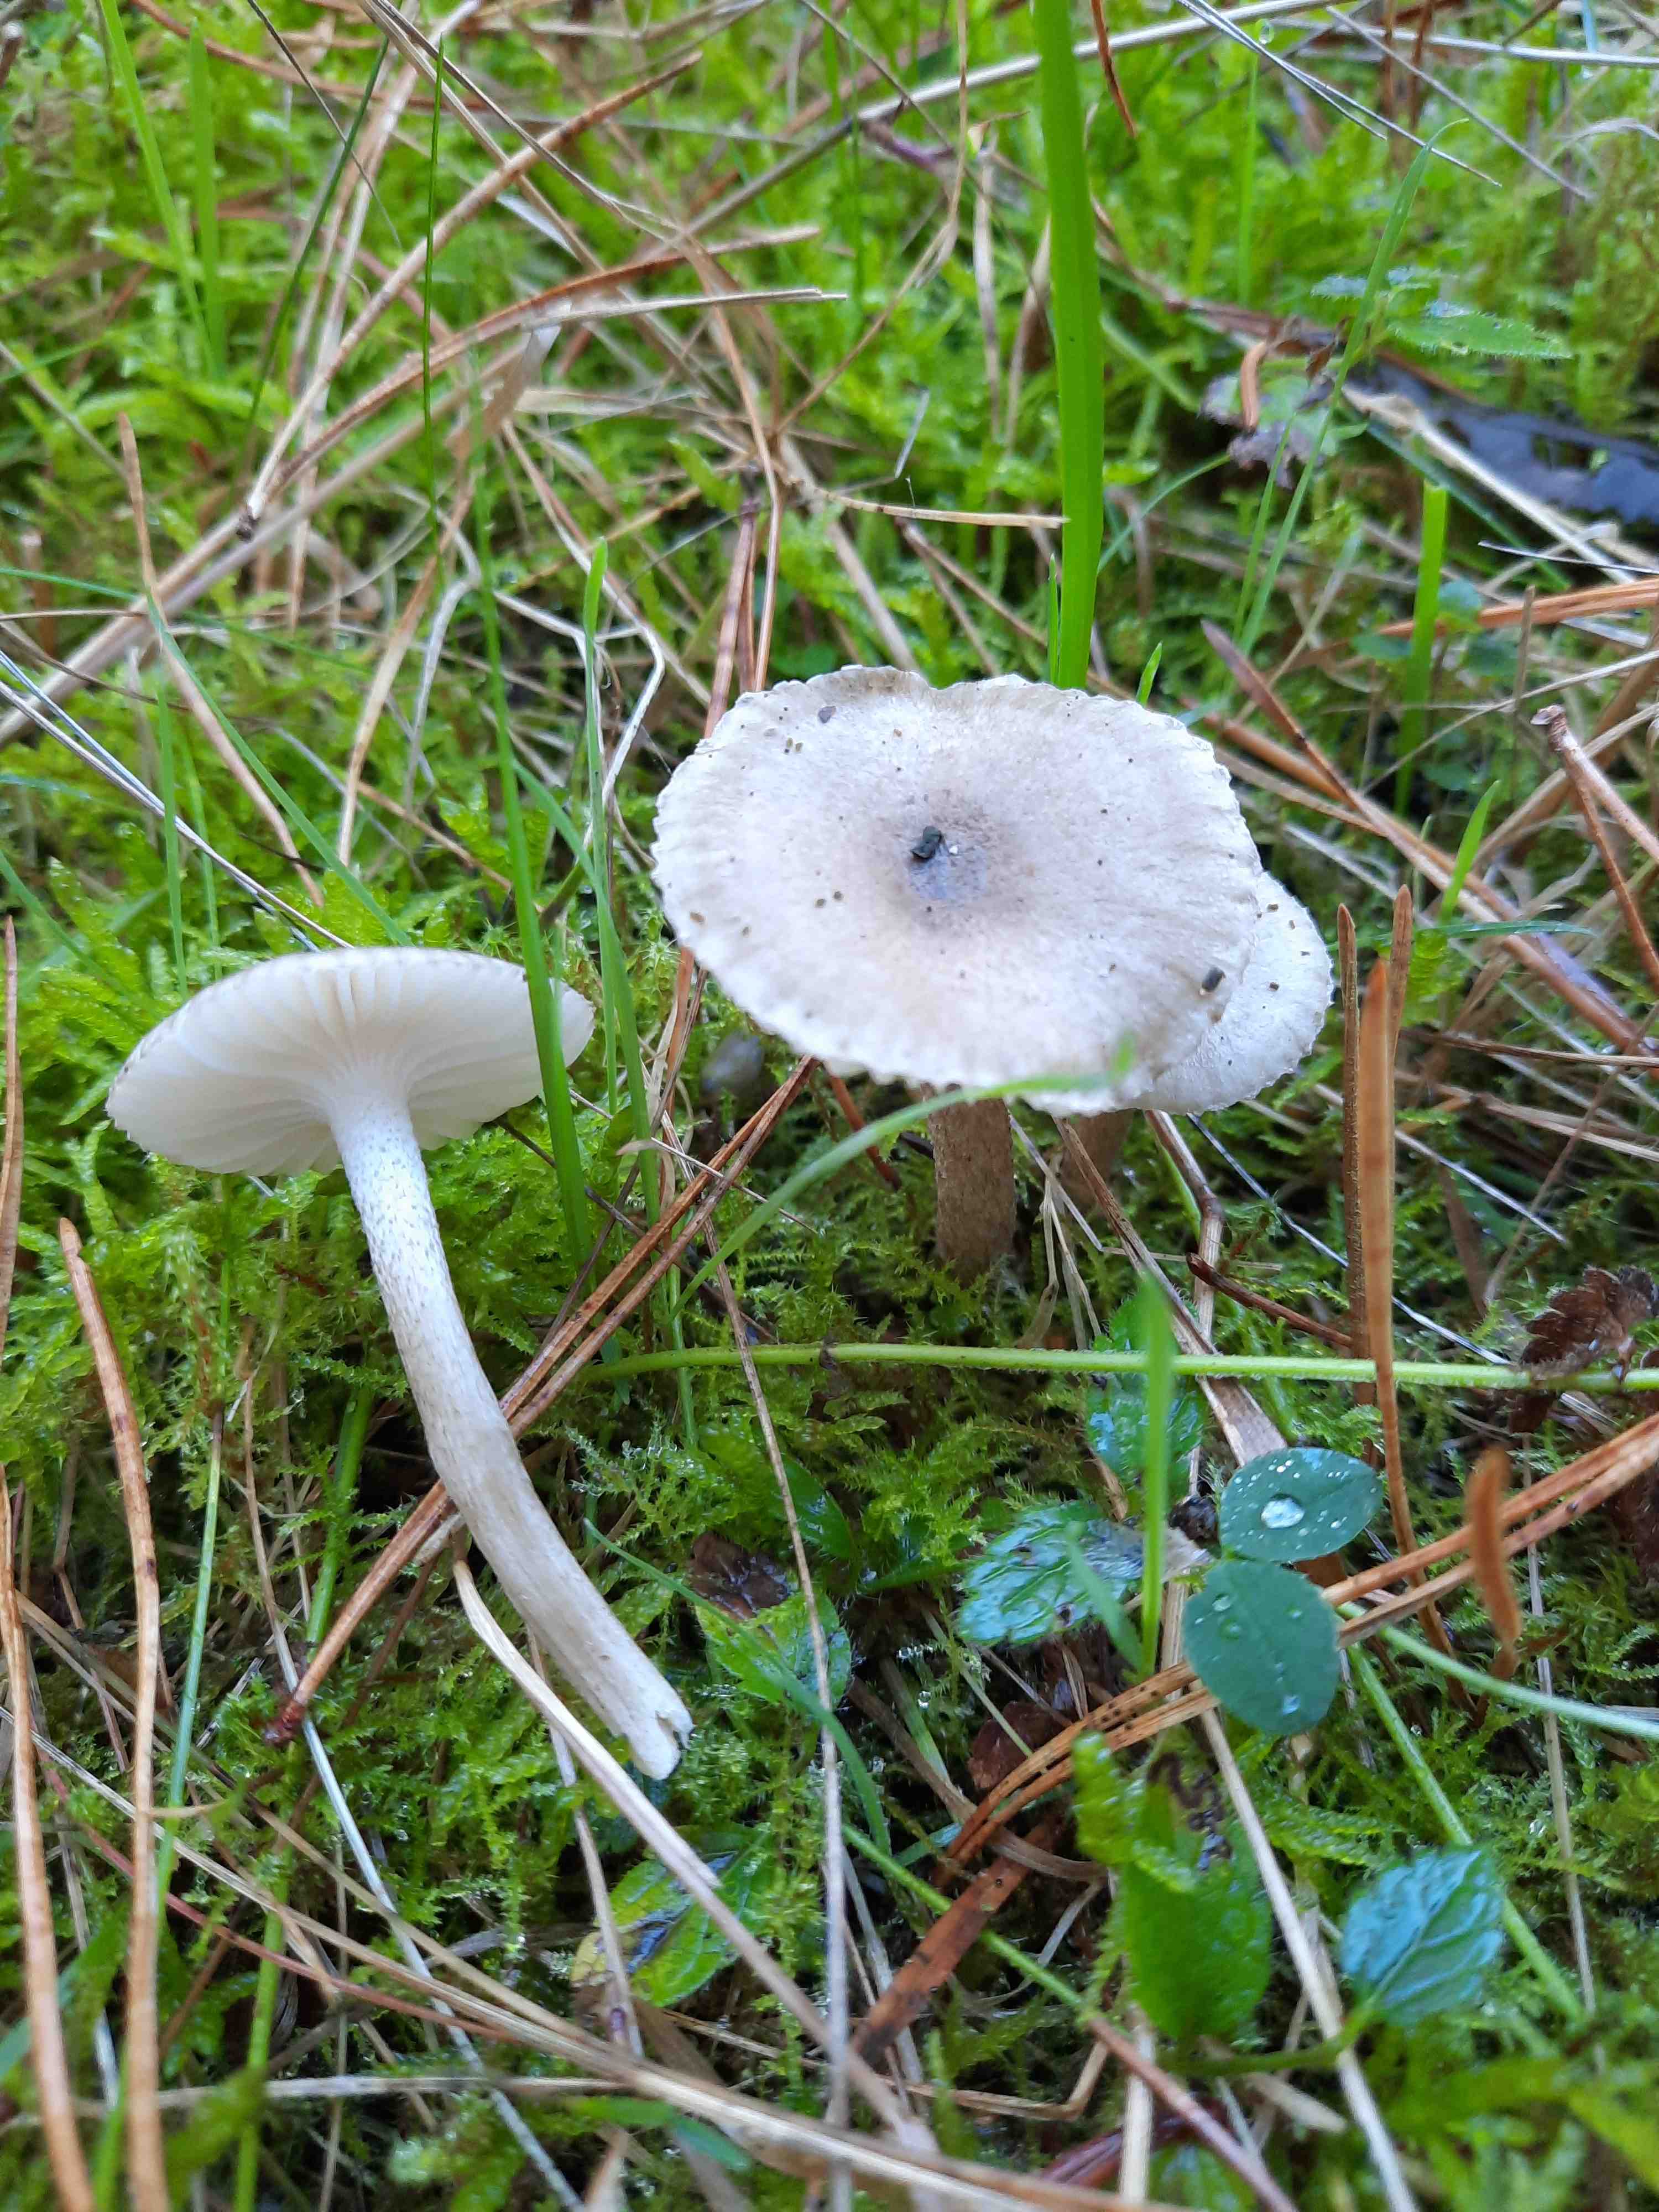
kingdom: Fungi
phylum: Basidiomycota
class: Agaricomycetes
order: Agaricales
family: Hygrophoraceae
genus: Hygrophorus
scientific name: Hygrophorus pustulatus
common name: mørkprikket sneglehat
